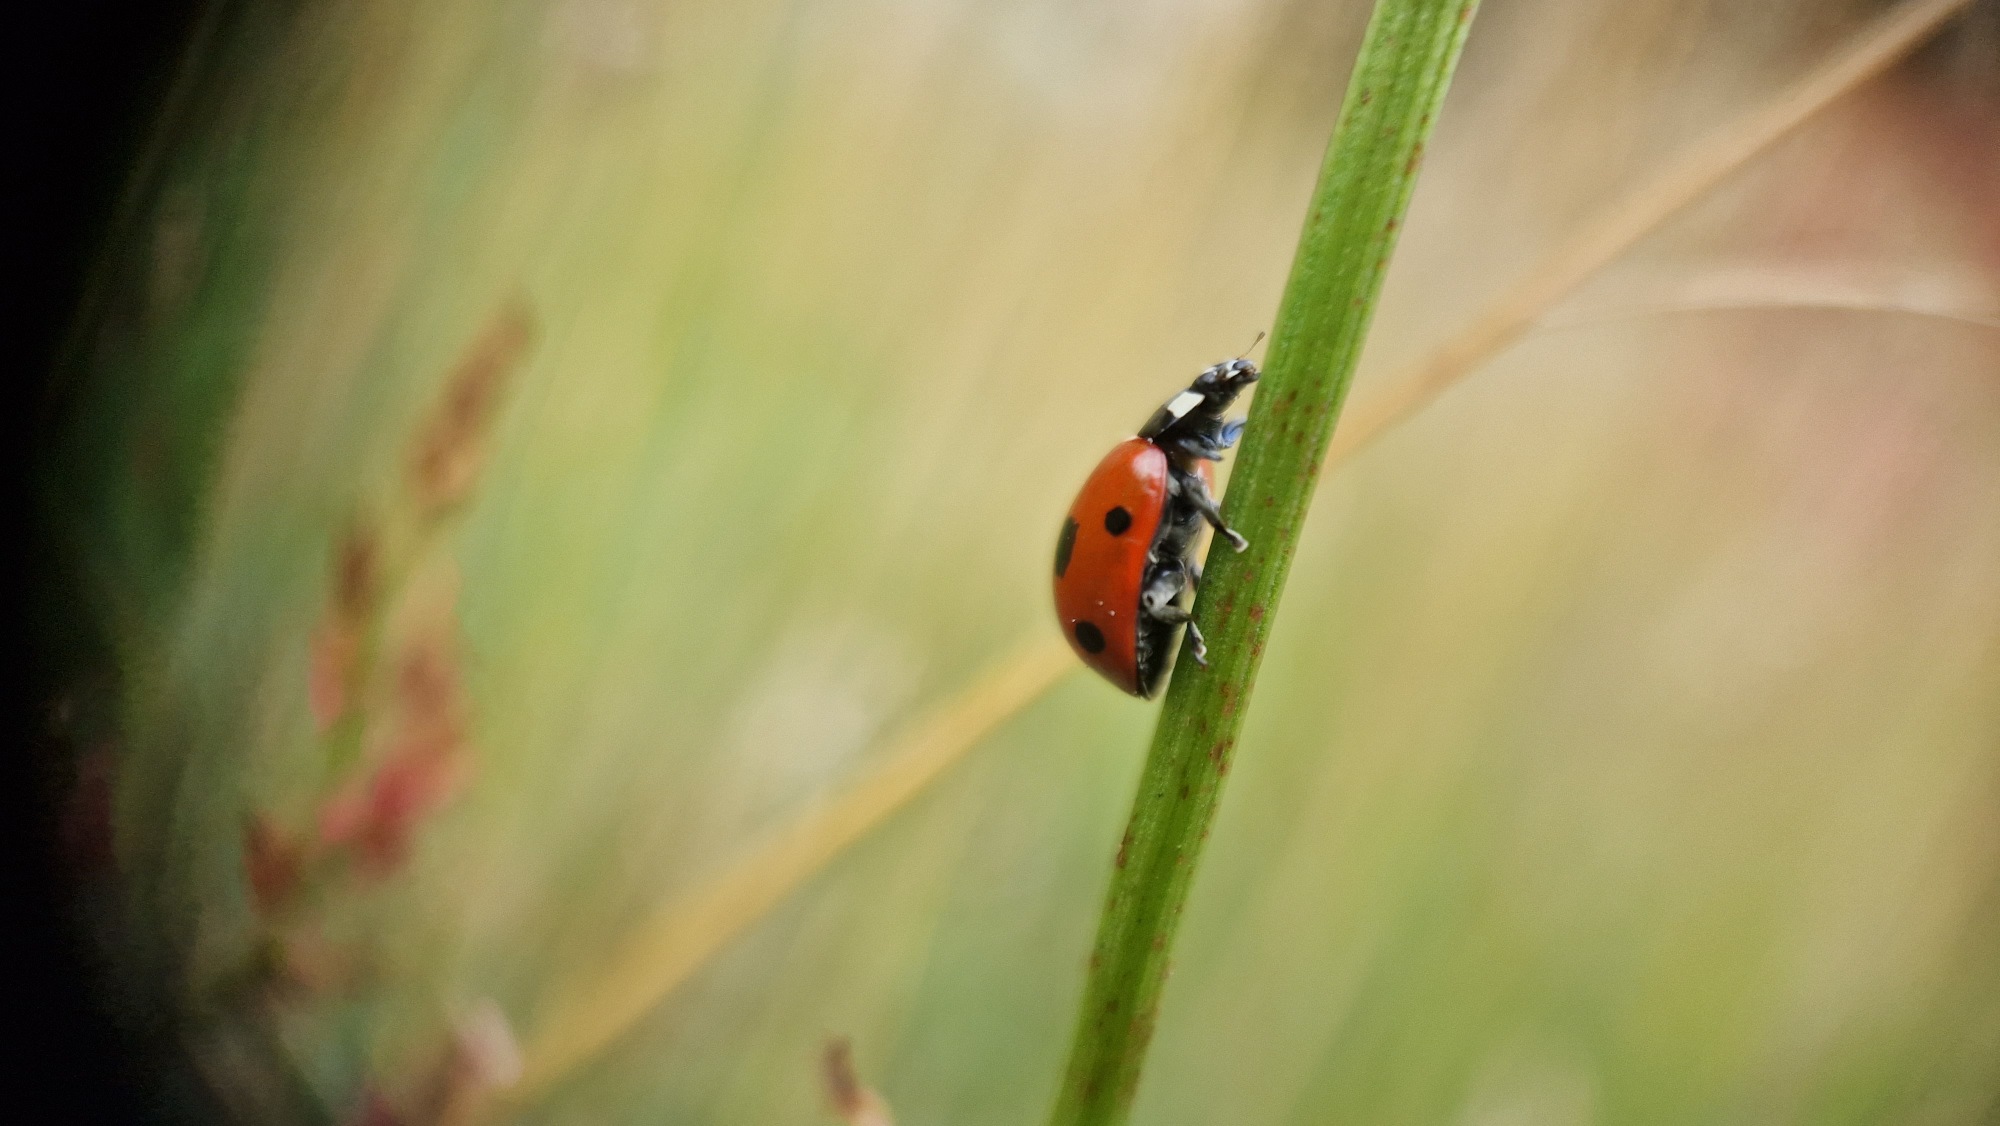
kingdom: Animalia
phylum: Arthropoda
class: Insecta
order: Coleoptera
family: Coccinellidae
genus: Coccinella
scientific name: Coccinella septempunctata
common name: Syvplettet mariehøne
